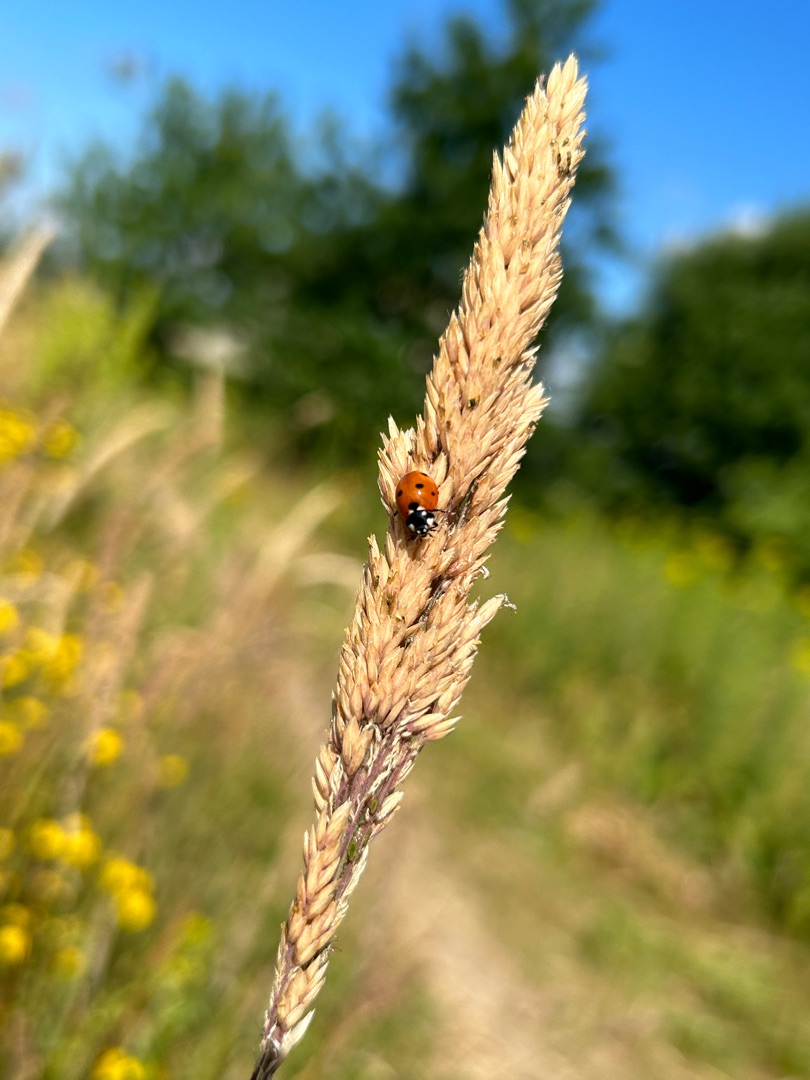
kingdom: Animalia
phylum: Arthropoda
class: Insecta
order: Coleoptera
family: Coccinellidae
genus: Coccinella
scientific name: Coccinella septempunctata
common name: Syvplettet mariehøne
